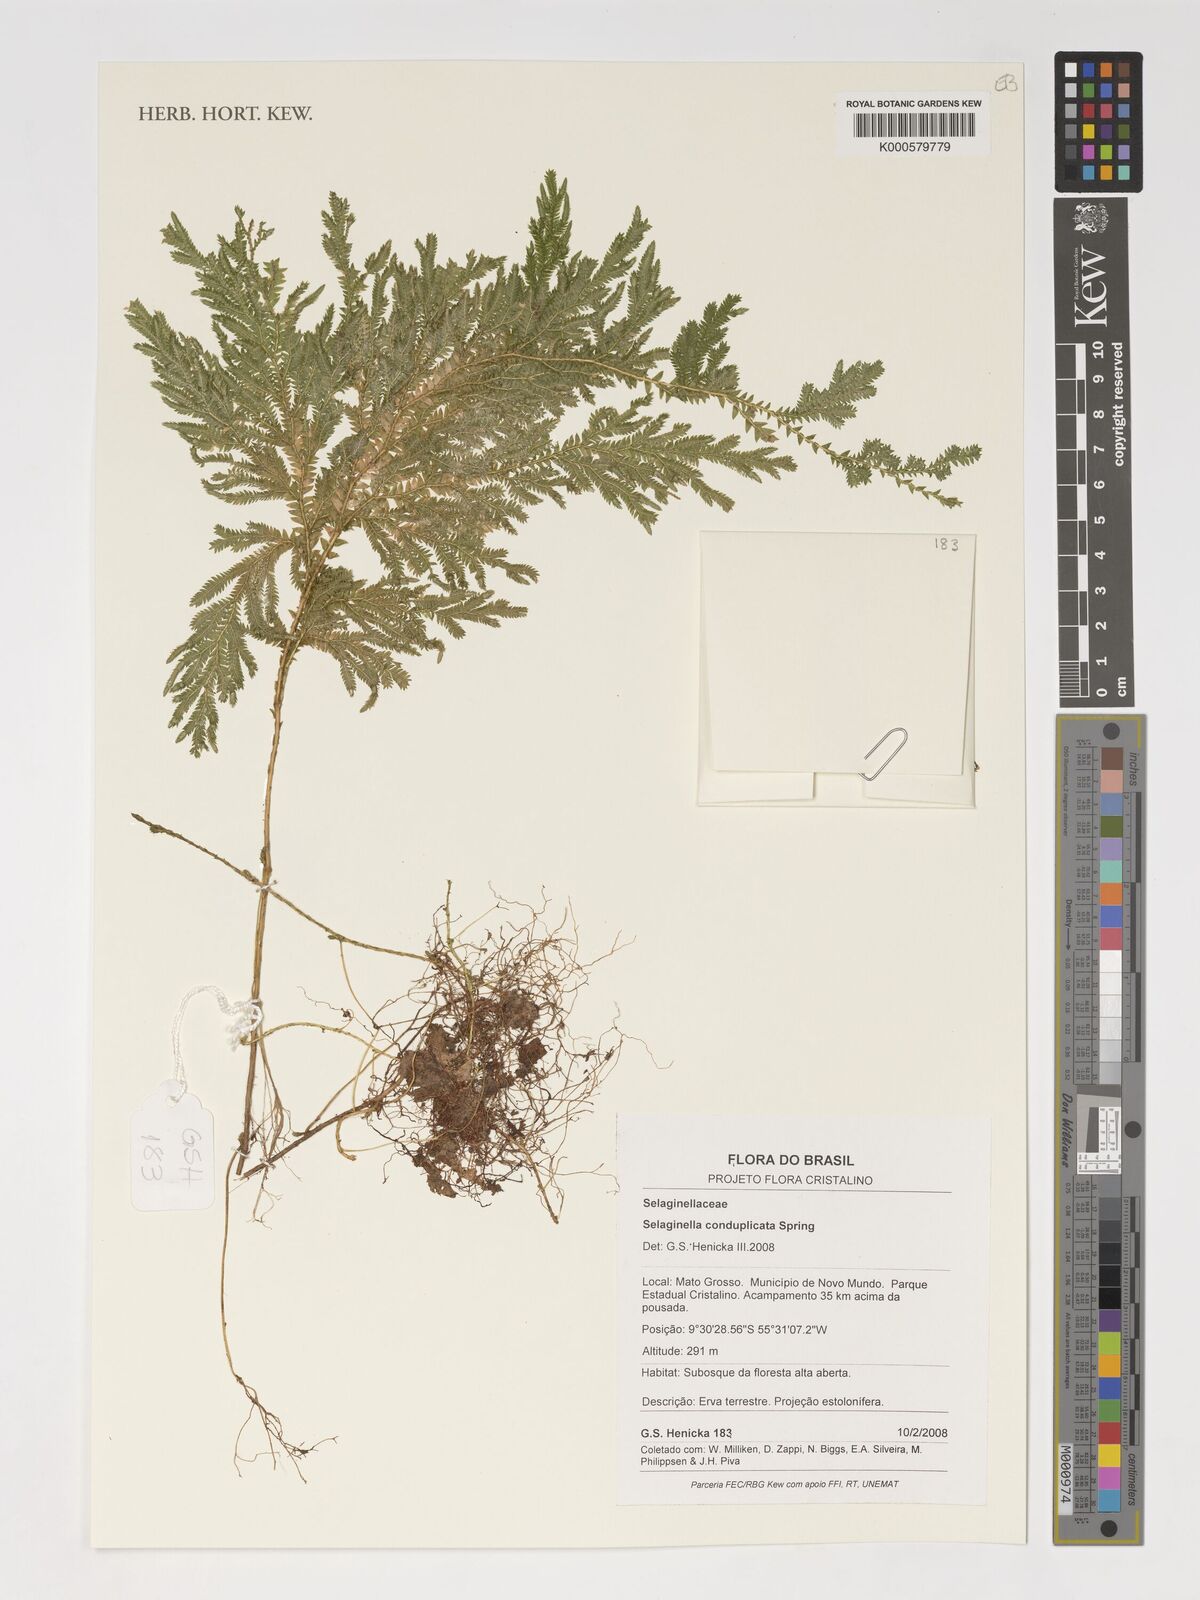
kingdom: Plantae
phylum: Tracheophyta
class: Lycopodiopsida
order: Selaginellales
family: Selaginellaceae
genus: Selaginella
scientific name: Selaginella conduplicata
